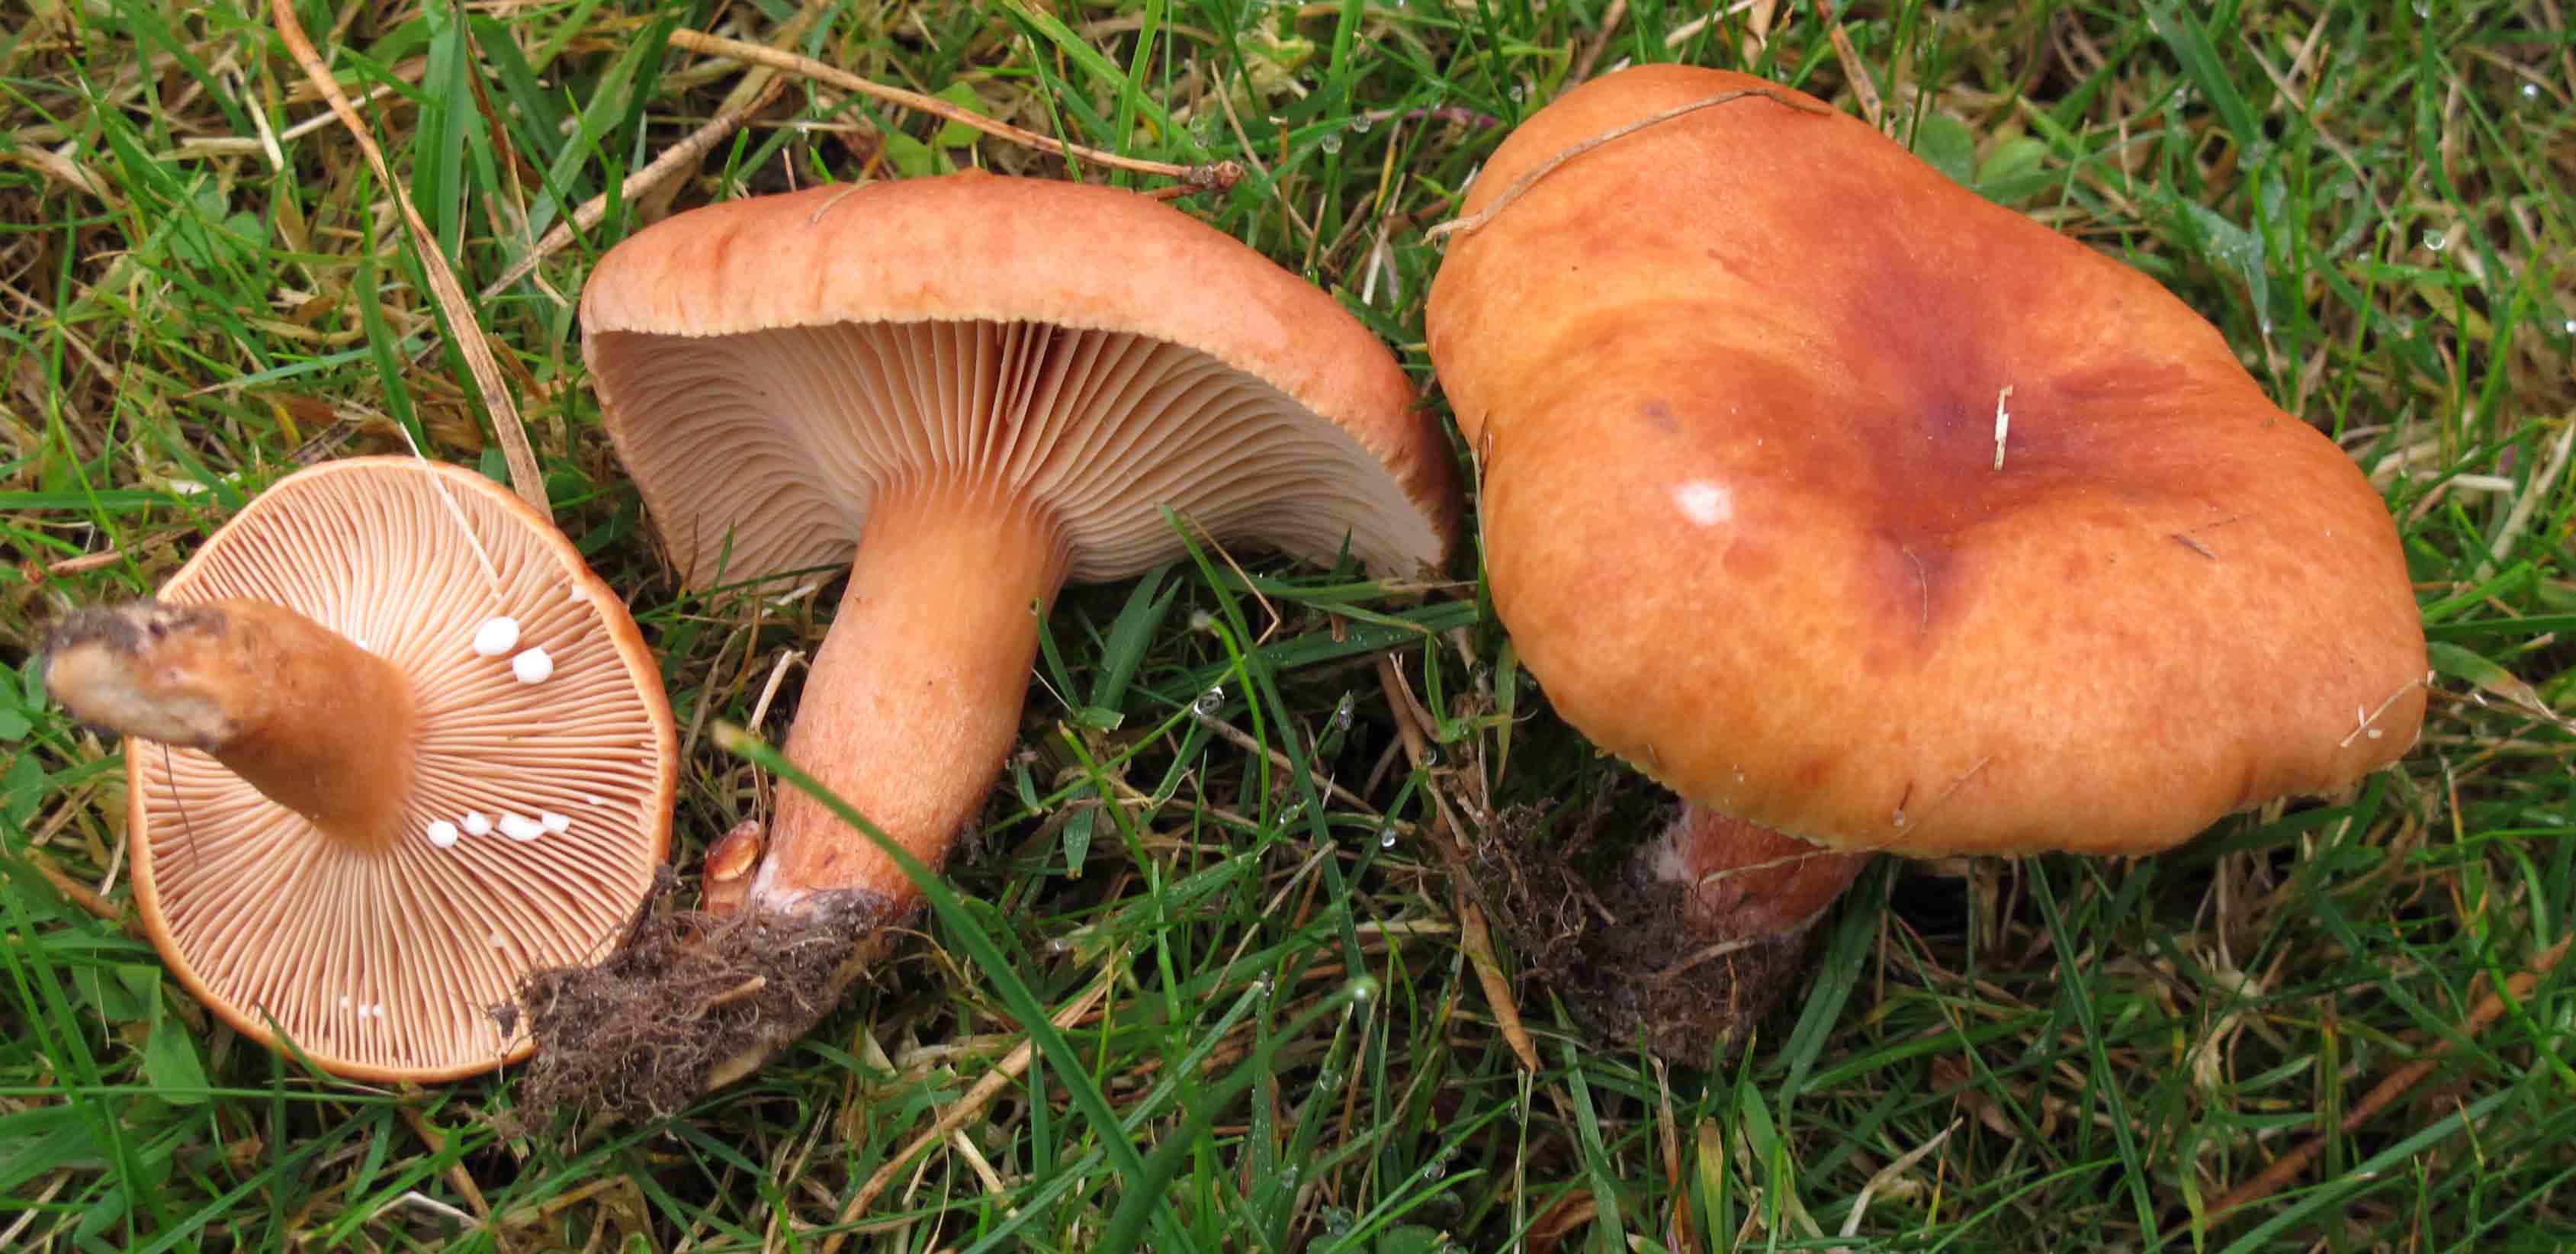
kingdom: Fungi
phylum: Basidiomycota
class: Agaricomycetes
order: Russulales
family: Russulaceae
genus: Lactarius
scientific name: Lactarius fulvissimus
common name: ræve-mælkehat
